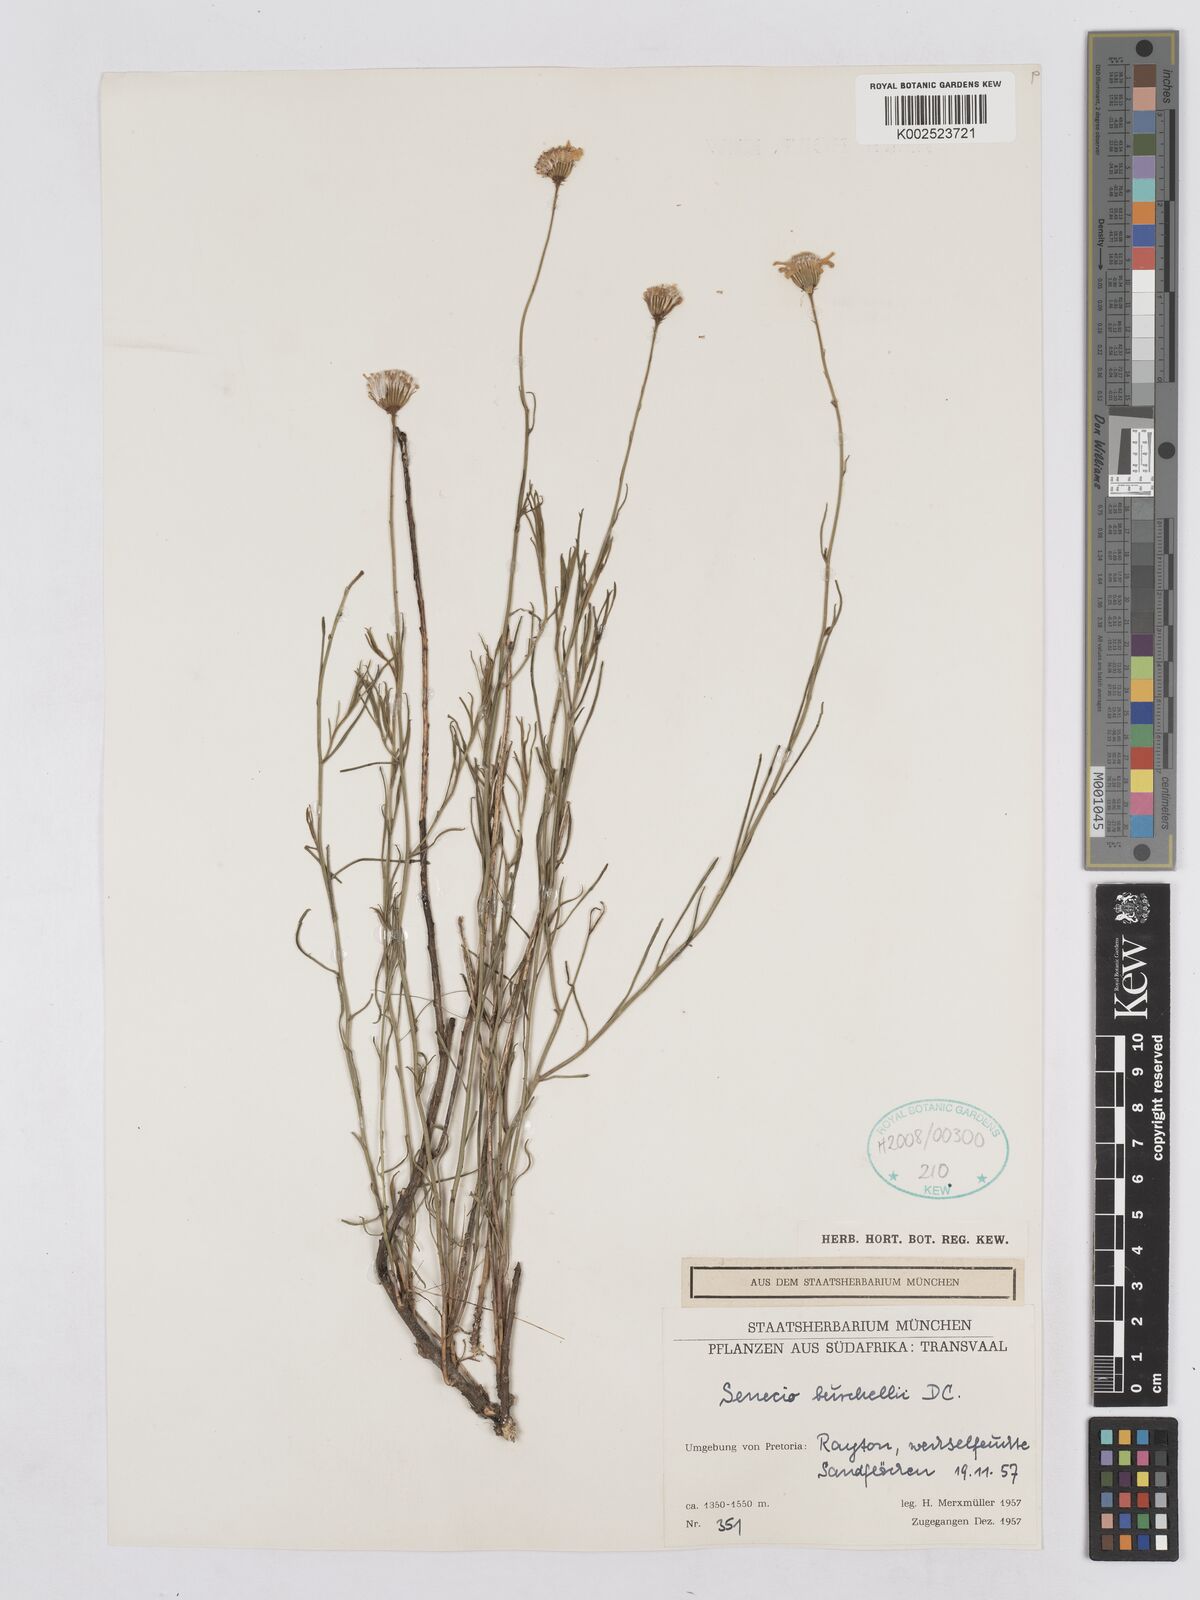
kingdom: Plantae
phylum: Tracheophyta
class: Magnoliopsida
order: Asterales
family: Asteraceae
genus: Senecio
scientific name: Senecio burchellii
